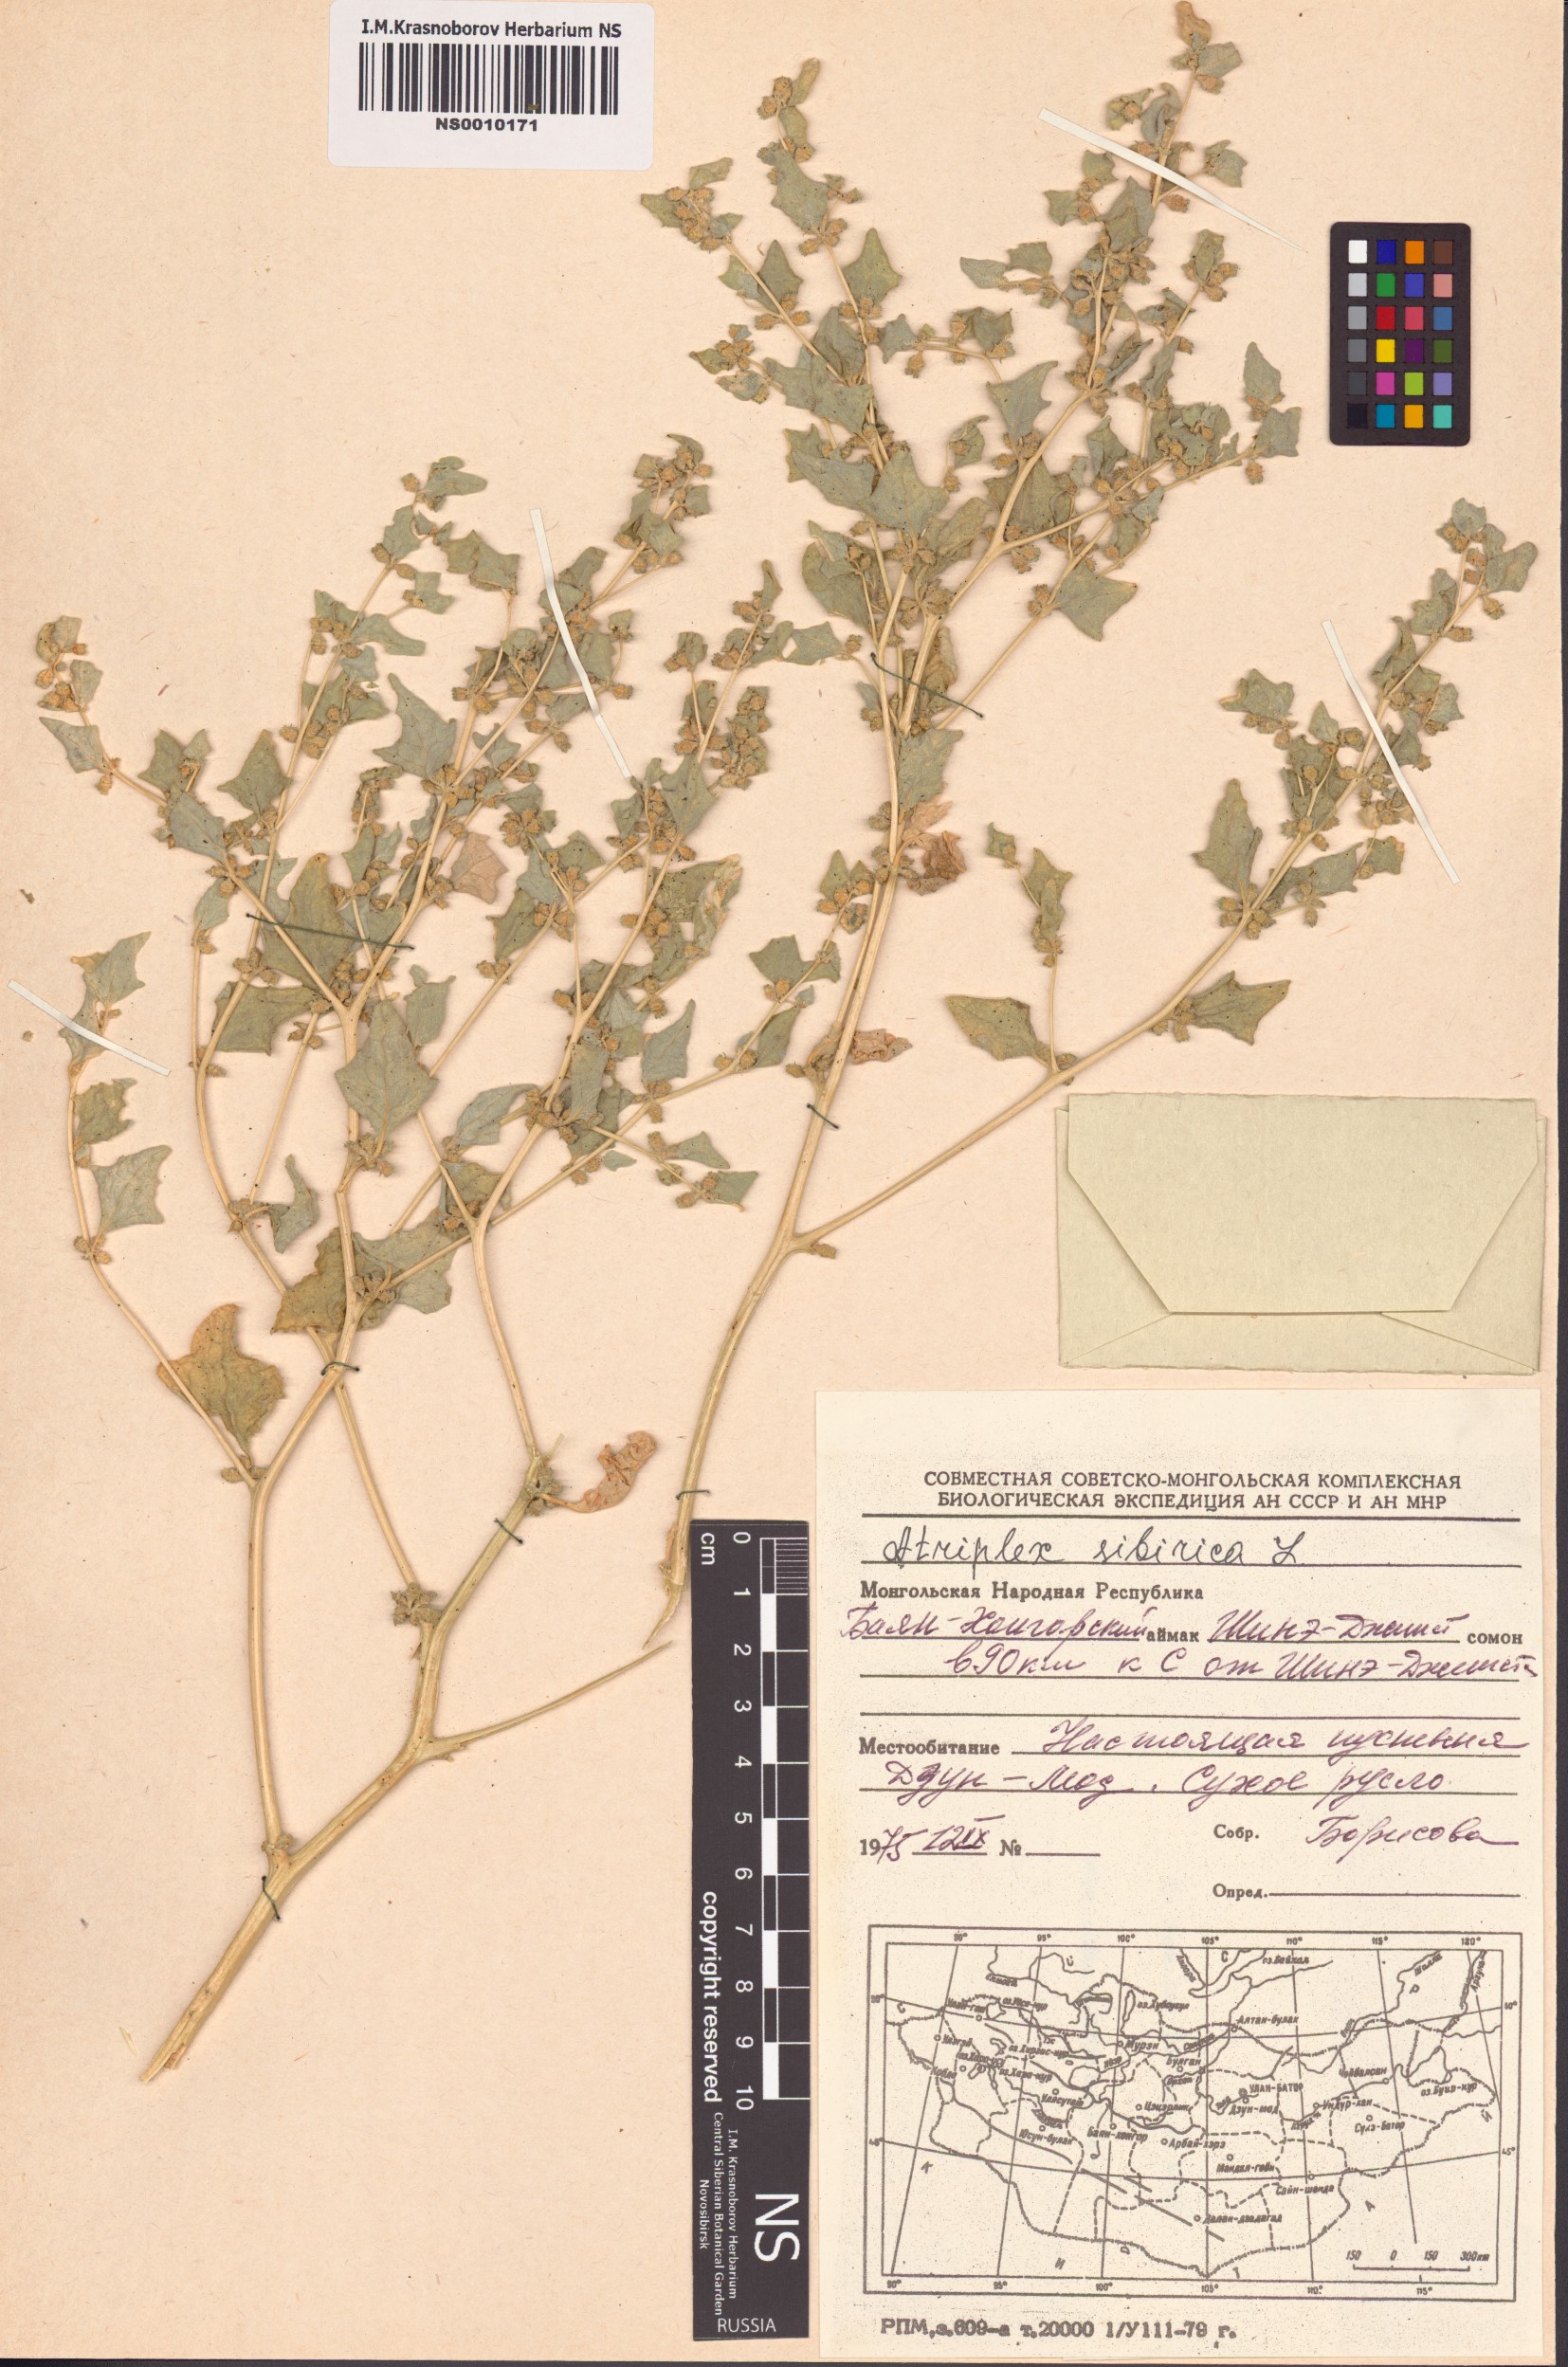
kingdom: Plantae
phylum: Tracheophyta
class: Magnoliopsida
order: Caryophyllales
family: Amaranthaceae
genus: Atriplex
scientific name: Atriplex sibirica
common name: Siberian saltbush
